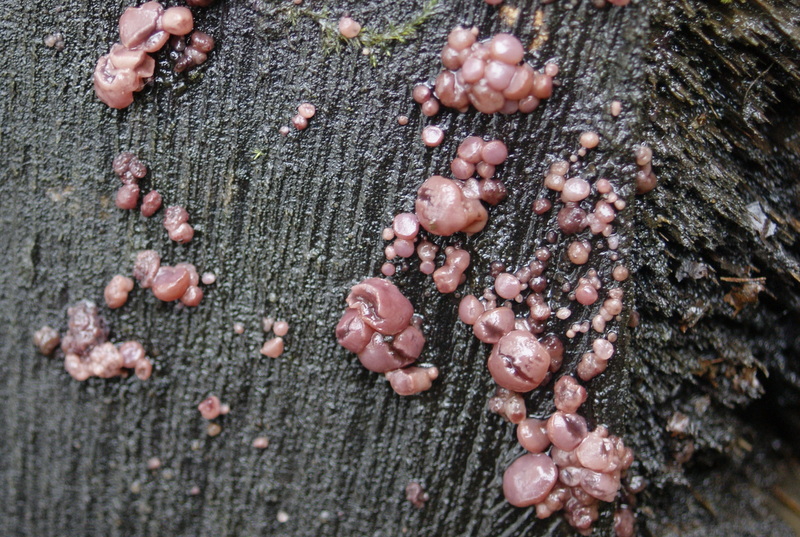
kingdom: Fungi
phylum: Ascomycota
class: Leotiomycetes
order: Helotiales
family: Gelatinodiscaceae
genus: Ascocoryne
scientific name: Ascocoryne sarcoides
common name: rødlilla sejskive
